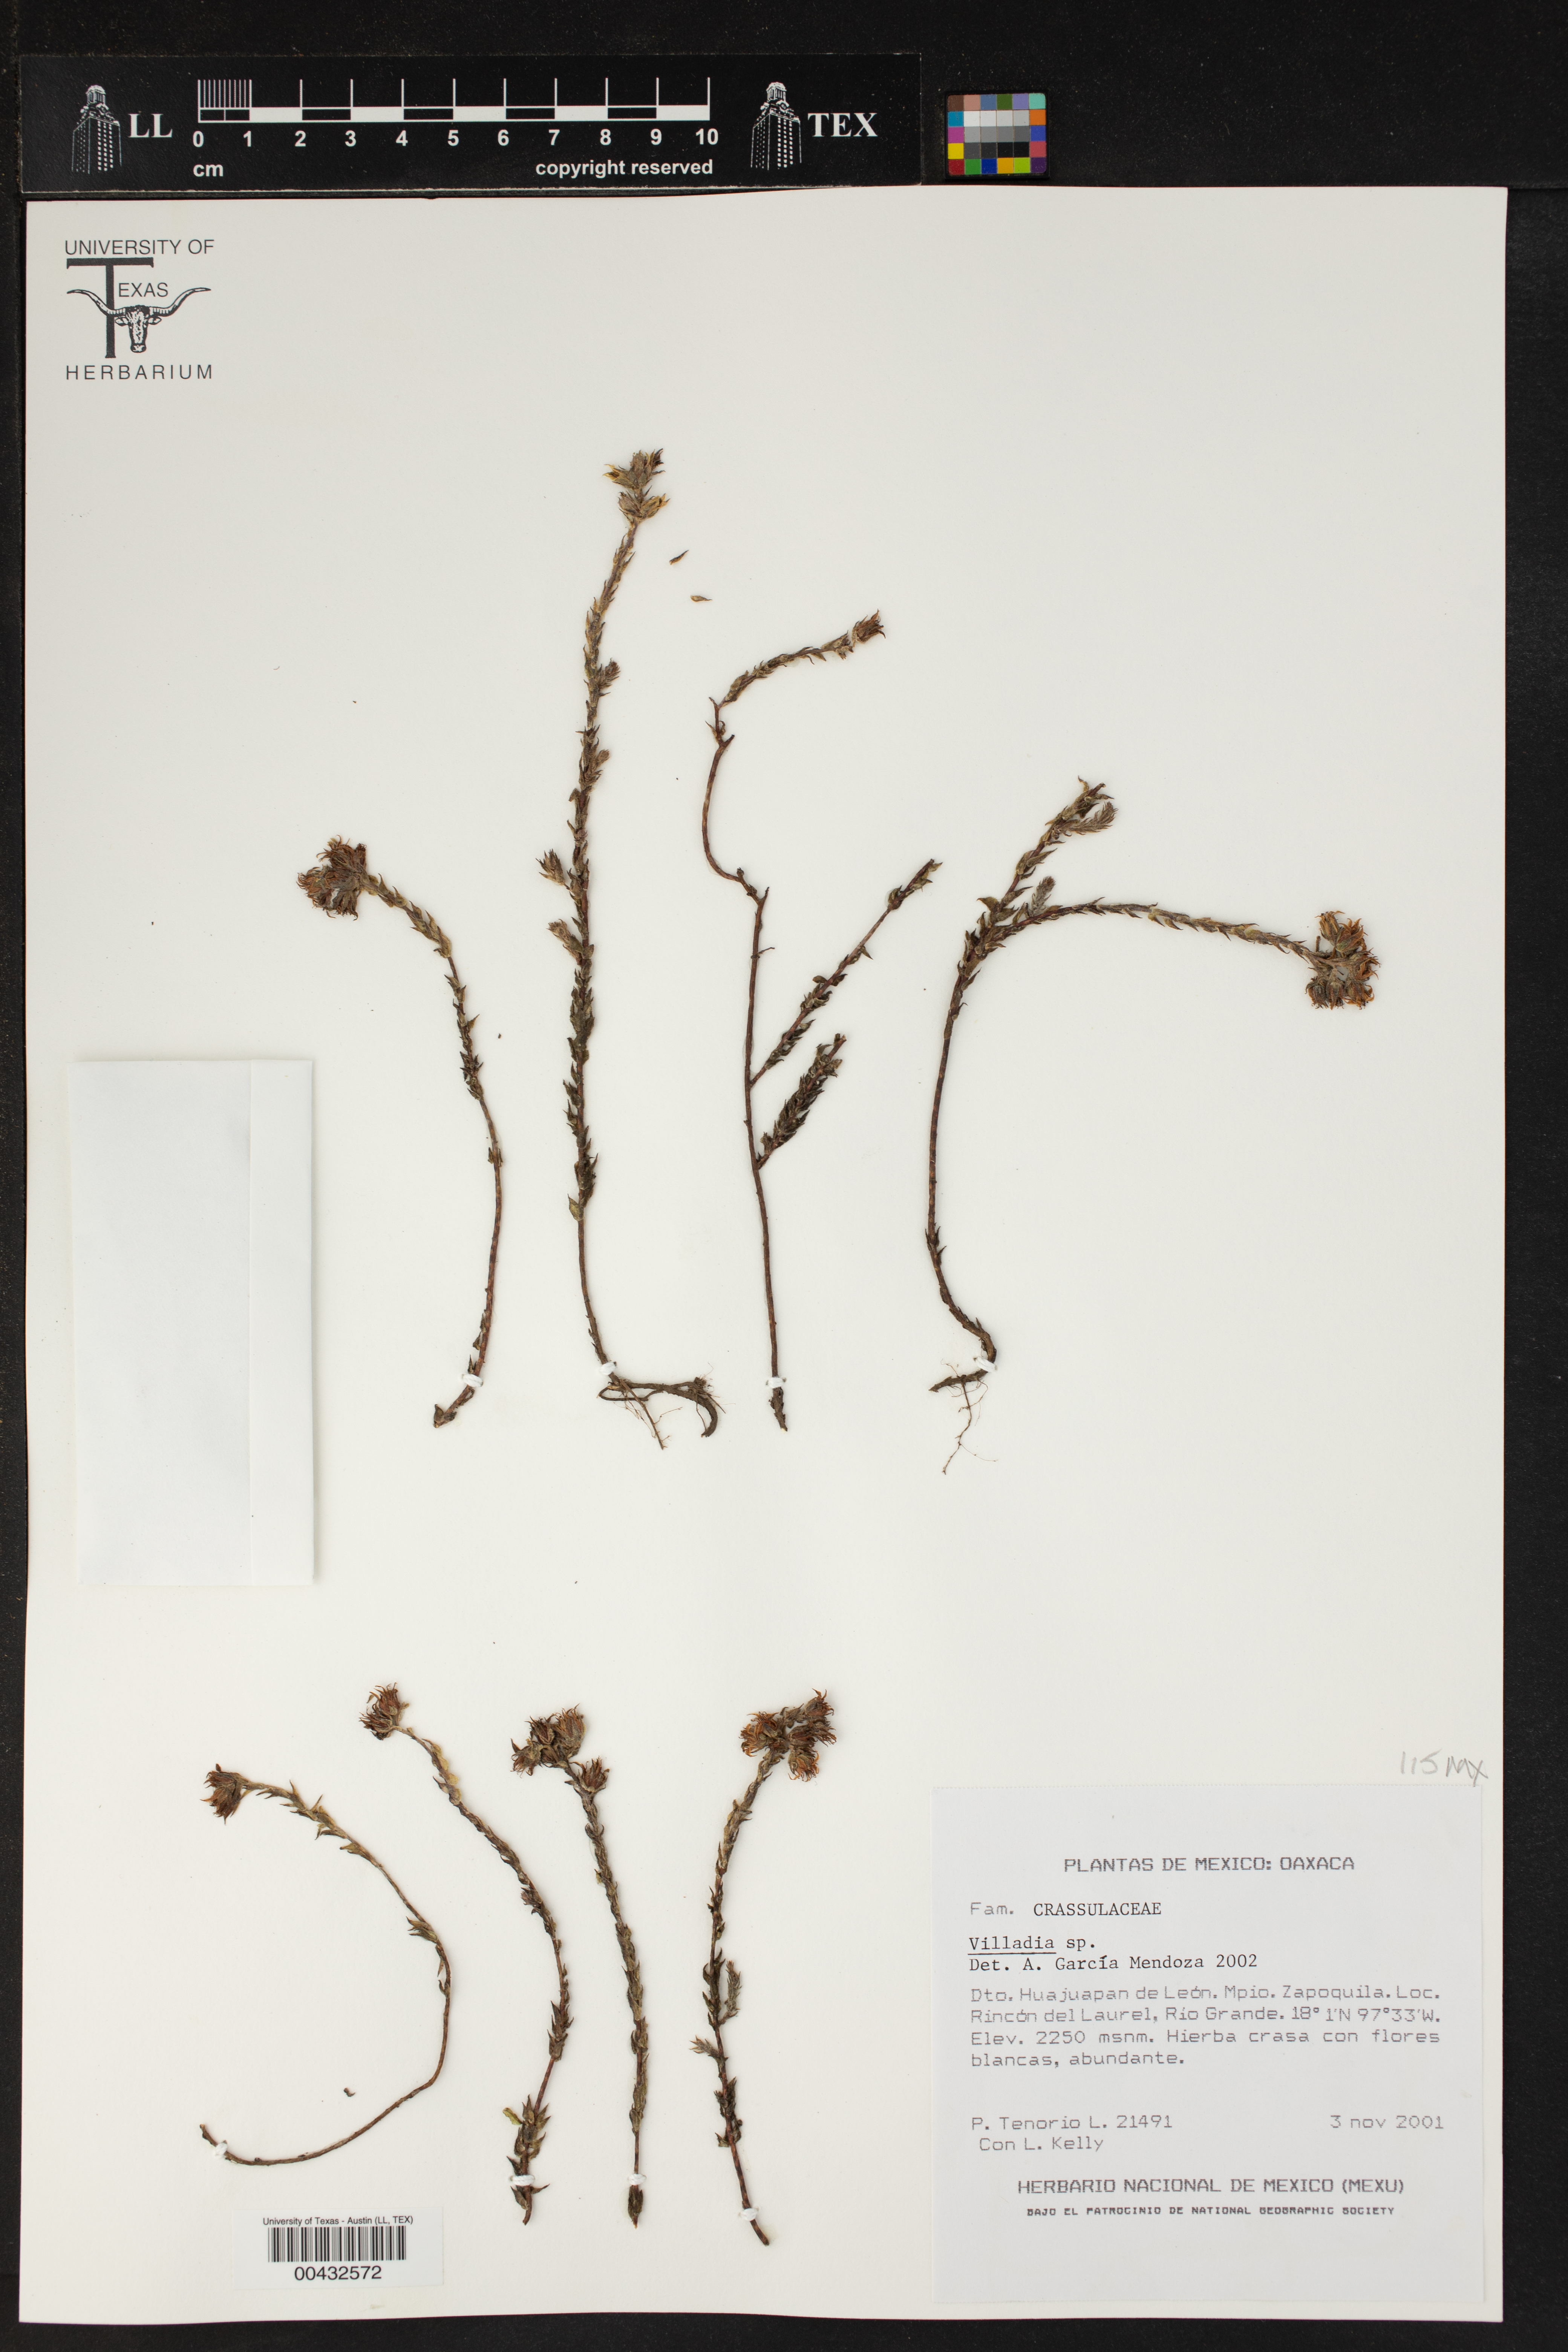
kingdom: Plantae
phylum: Tracheophyta
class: Magnoliopsida
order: Saxifragales
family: Crassulaceae
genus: Villadia
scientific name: Villadia
